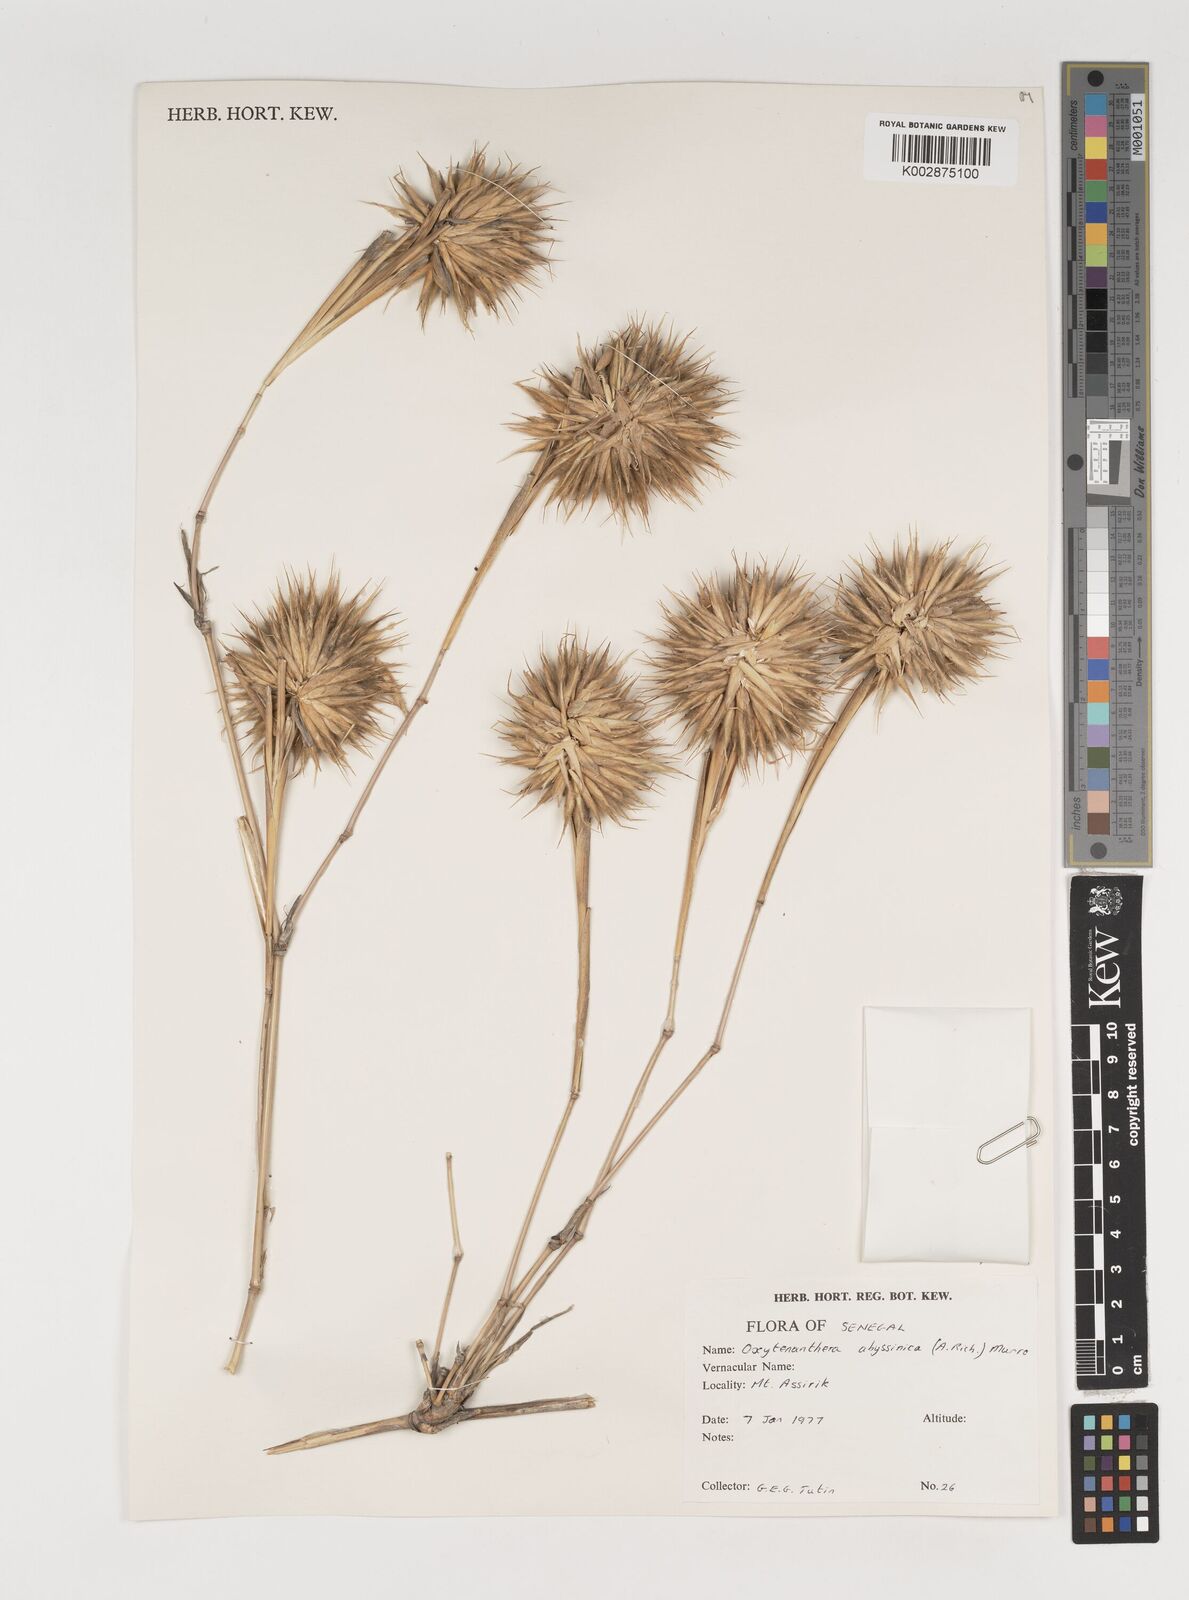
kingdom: Plantae
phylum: Tracheophyta
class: Liliopsida
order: Poales
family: Poaceae
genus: Oxytenanthera
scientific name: Oxytenanthera abyssinica
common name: Wine bamboo
